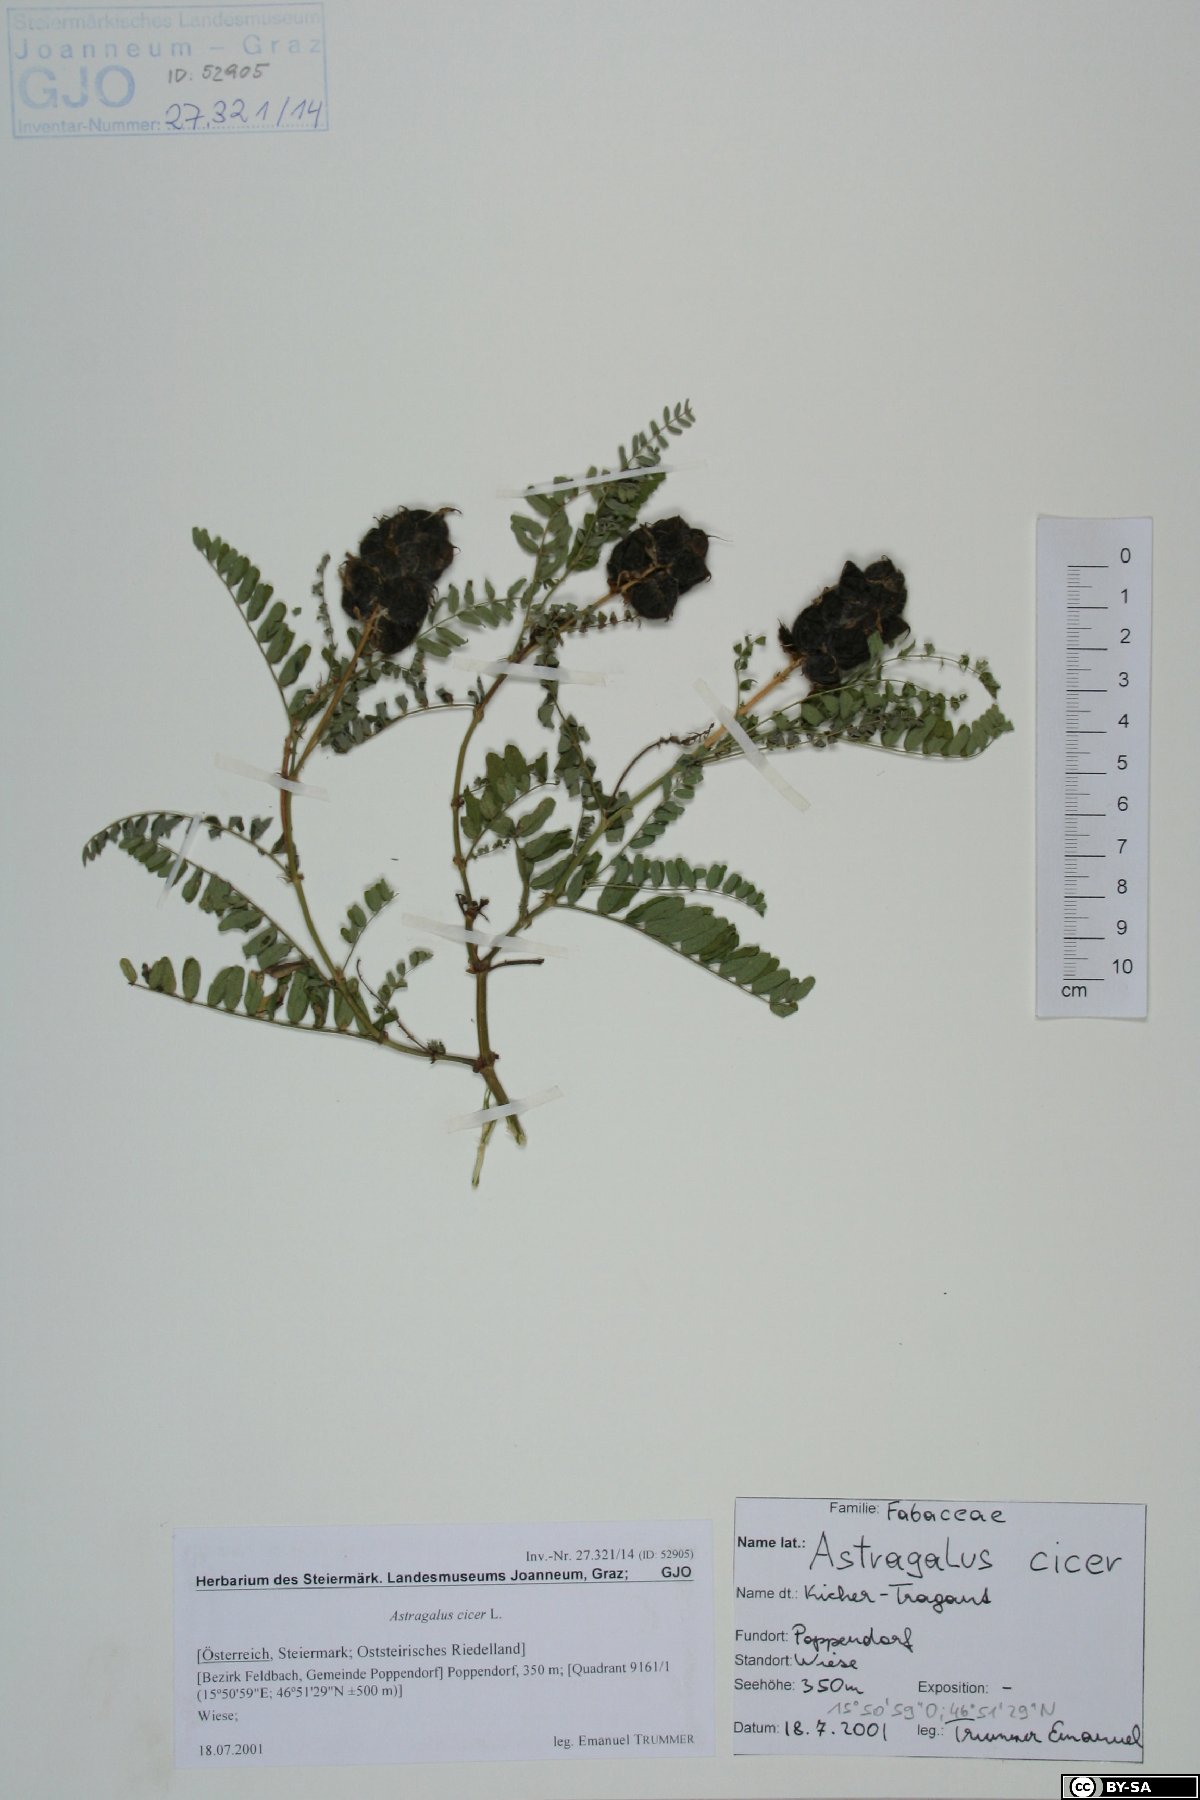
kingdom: Plantae
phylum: Tracheophyta
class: Magnoliopsida
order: Fabales
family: Fabaceae
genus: Astragalus
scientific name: Astragalus cicer
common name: Chick-pea milk-vetch
